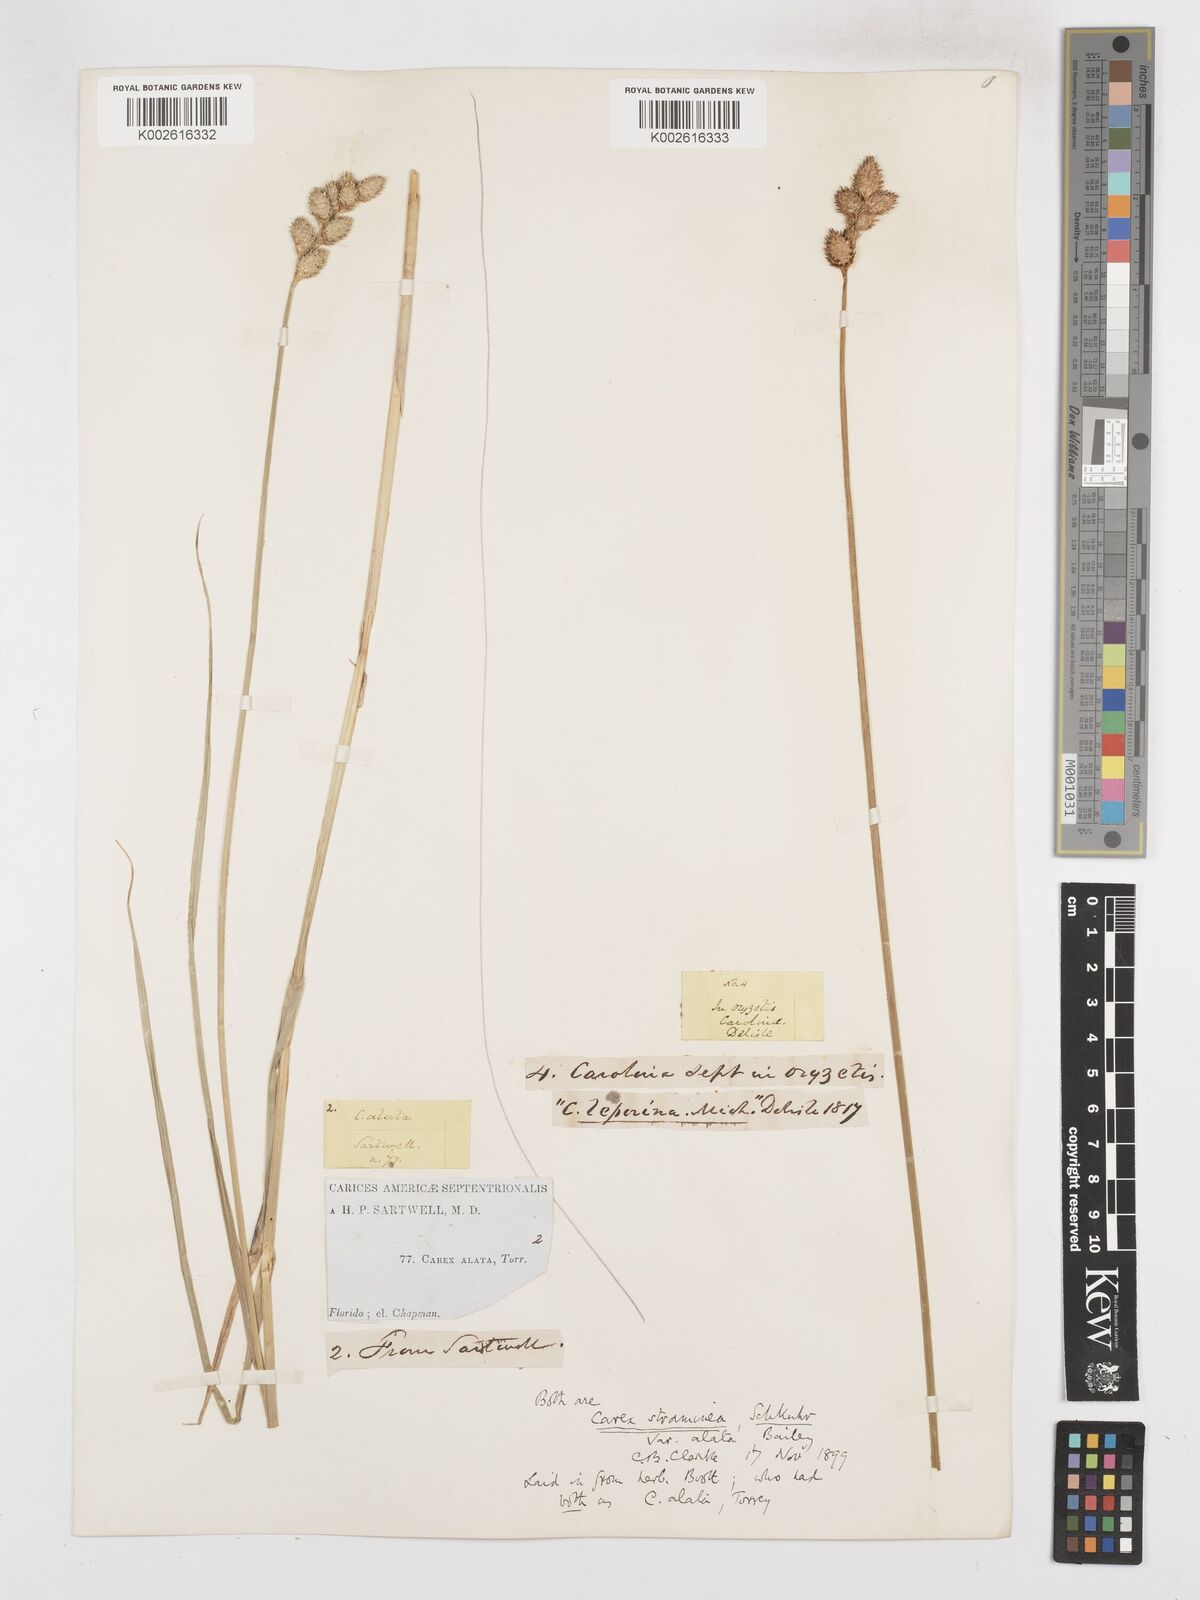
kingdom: Plantae
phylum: Tracheophyta
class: Liliopsida
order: Poales
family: Cyperaceae
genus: Carex
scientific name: Carex alata
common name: Broad-winged sedge
